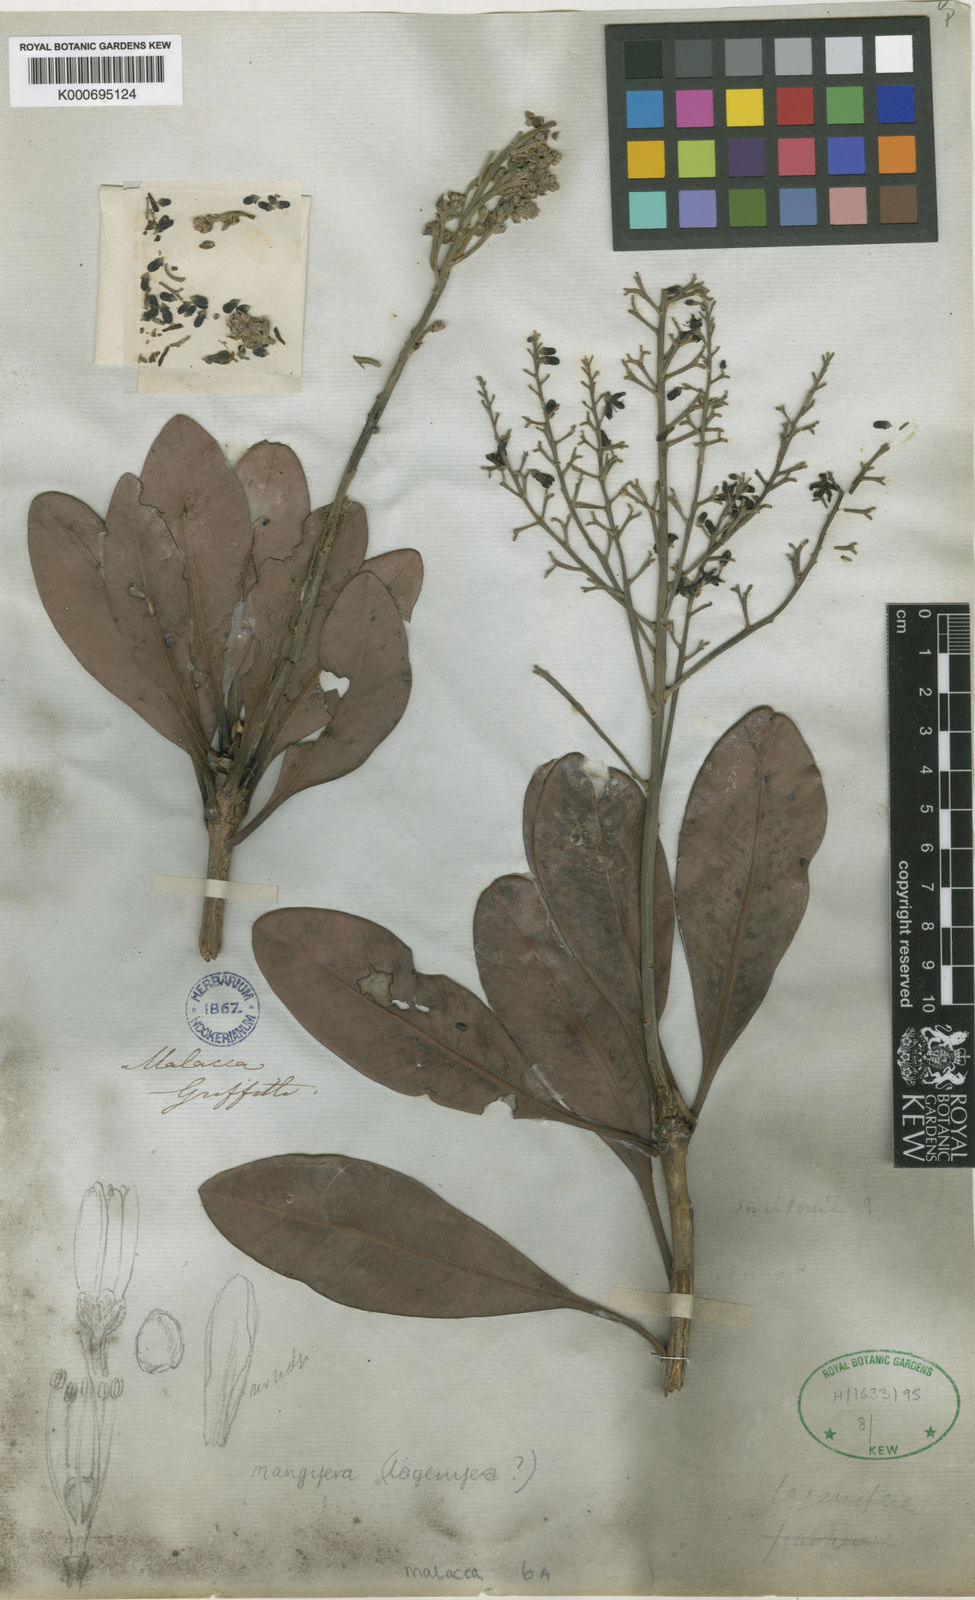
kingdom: Plantae
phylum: Tracheophyta
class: Magnoliopsida
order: Sapindales
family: Anacardiaceae
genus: Mangifera
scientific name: Mangifera lagenifera
